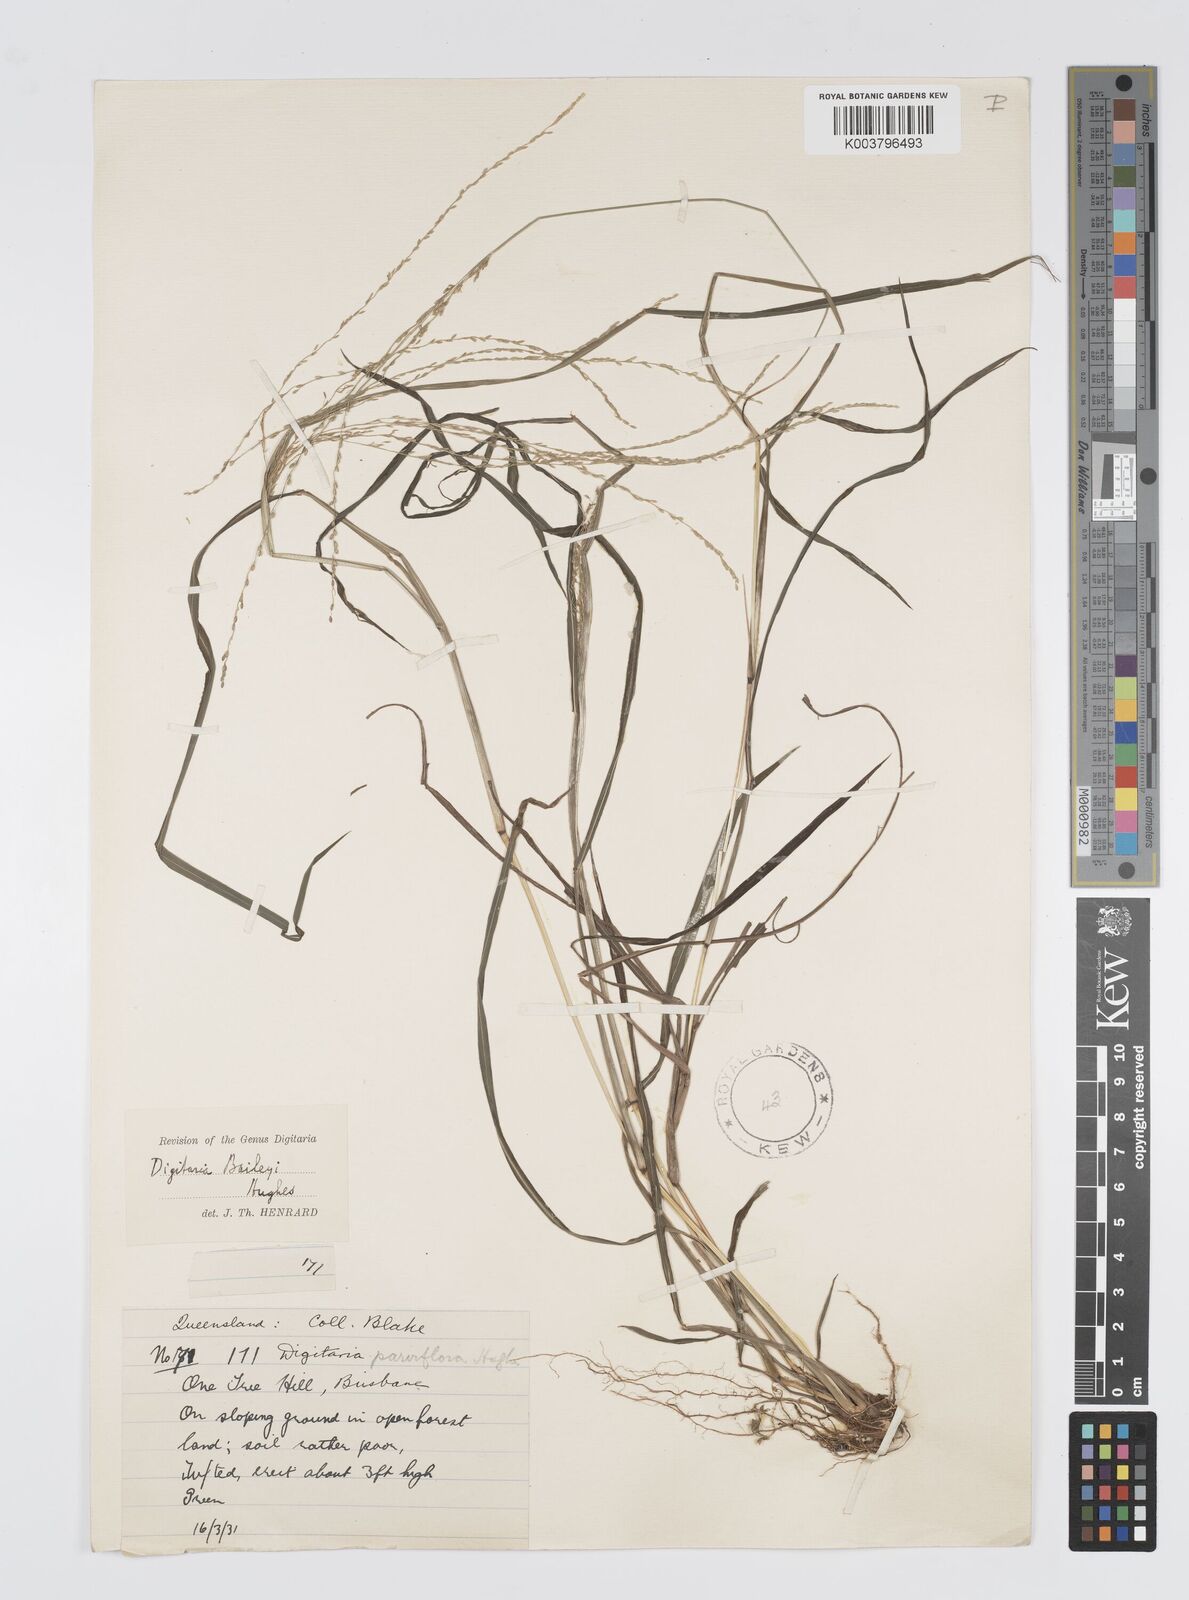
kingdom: Plantae
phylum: Tracheophyta
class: Liliopsida
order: Poales
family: Poaceae
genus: Digitaria
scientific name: Digitaria baileyi
